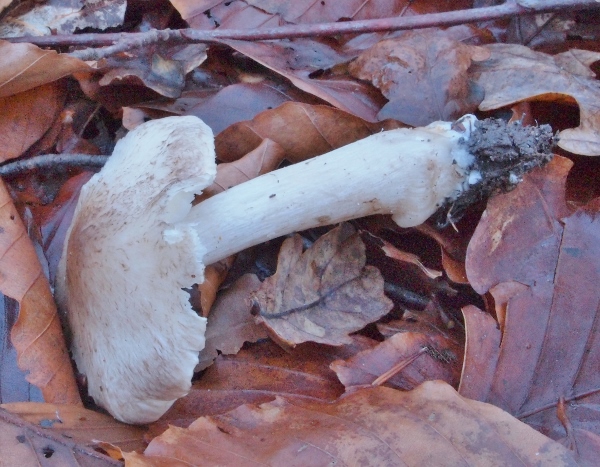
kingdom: Fungi
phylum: Basidiomycota
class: Agaricomycetes
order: Agaricales
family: Tricholomataceae
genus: Tricholoma
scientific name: Tricholoma scalpturatum
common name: gulplettet ridderhat
